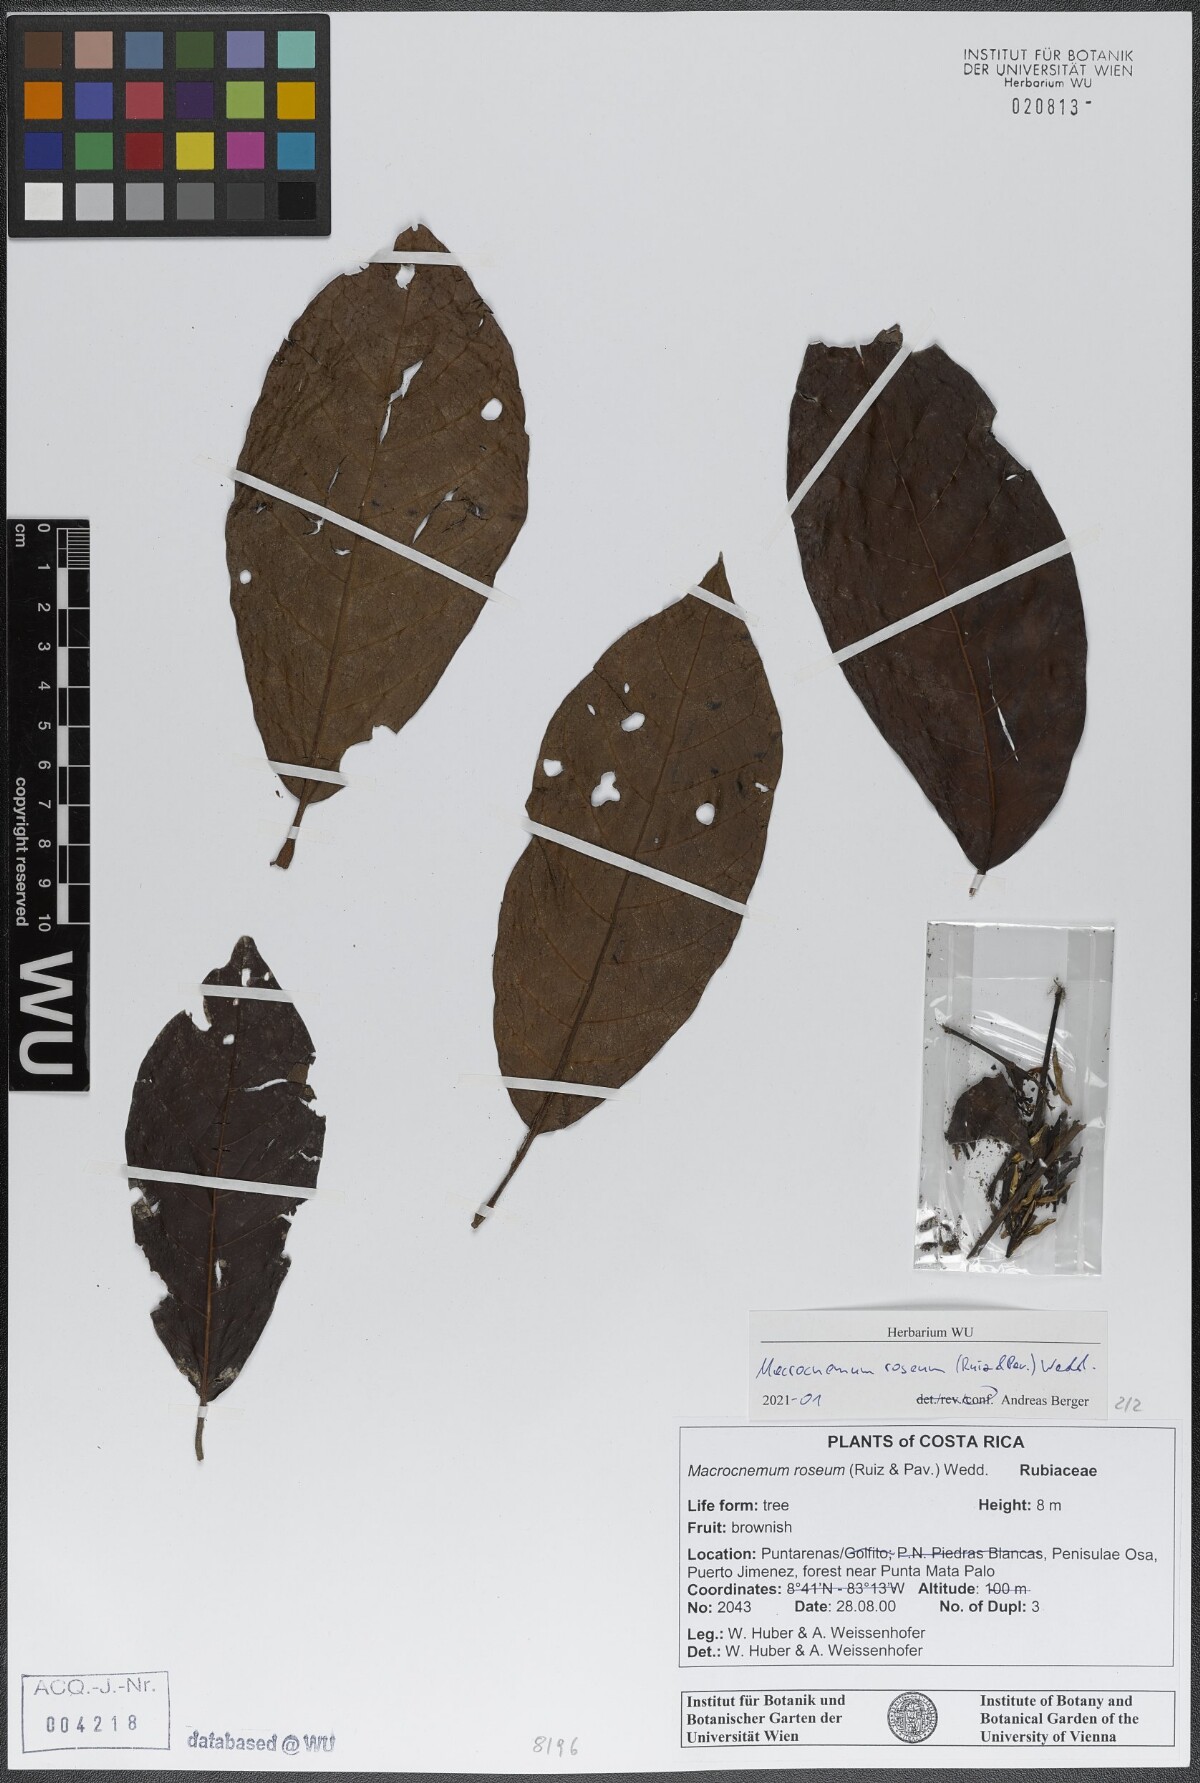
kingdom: Plantae
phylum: Tracheophyta
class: Magnoliopsida
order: Gentianales
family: Rubiaceae
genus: Macrocnemum
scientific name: Macrocnemum roseum
